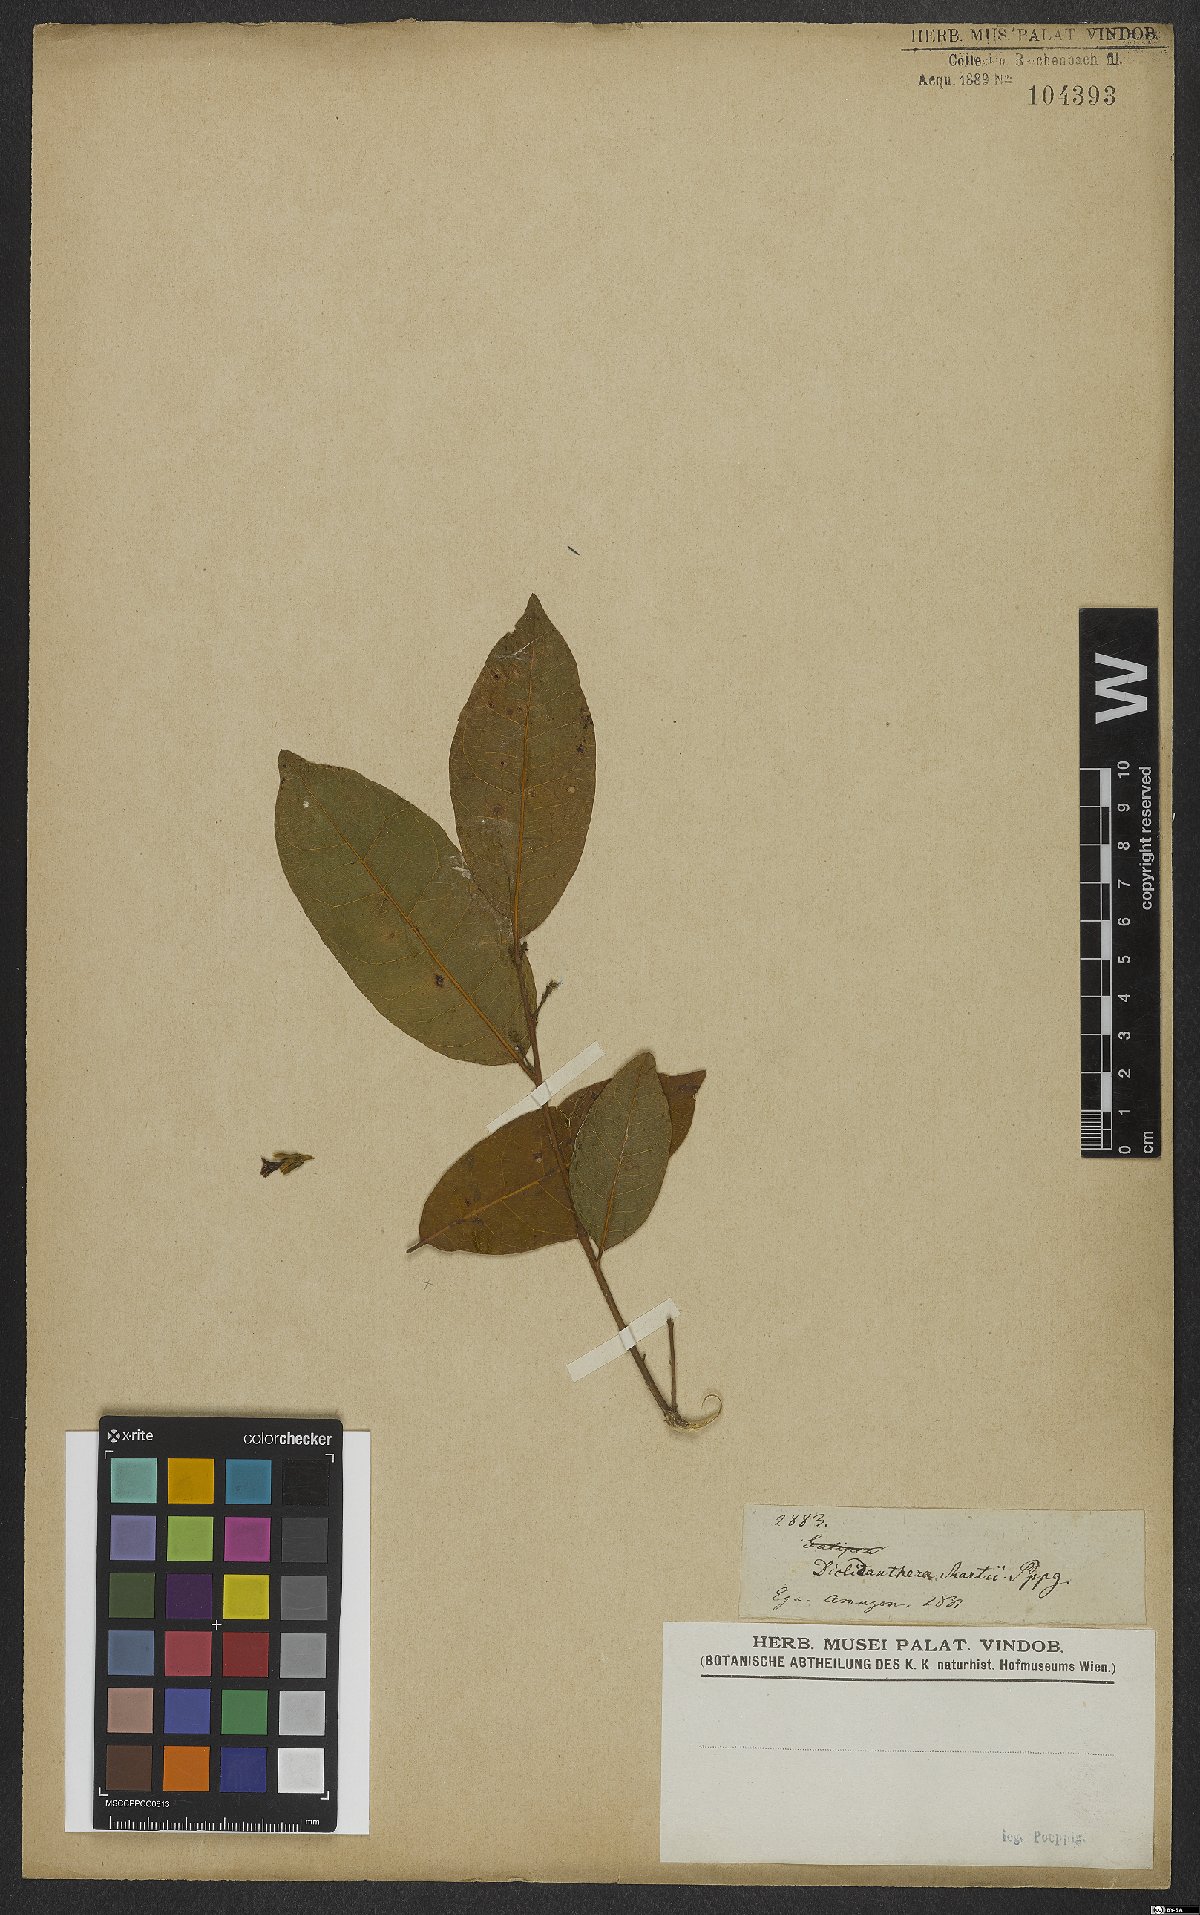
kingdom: Plantae
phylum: Tracheophyta
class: Magnoliopsida
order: Fabales
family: Polygalaceae
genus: Diclidanthera
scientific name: Diclidanthera
